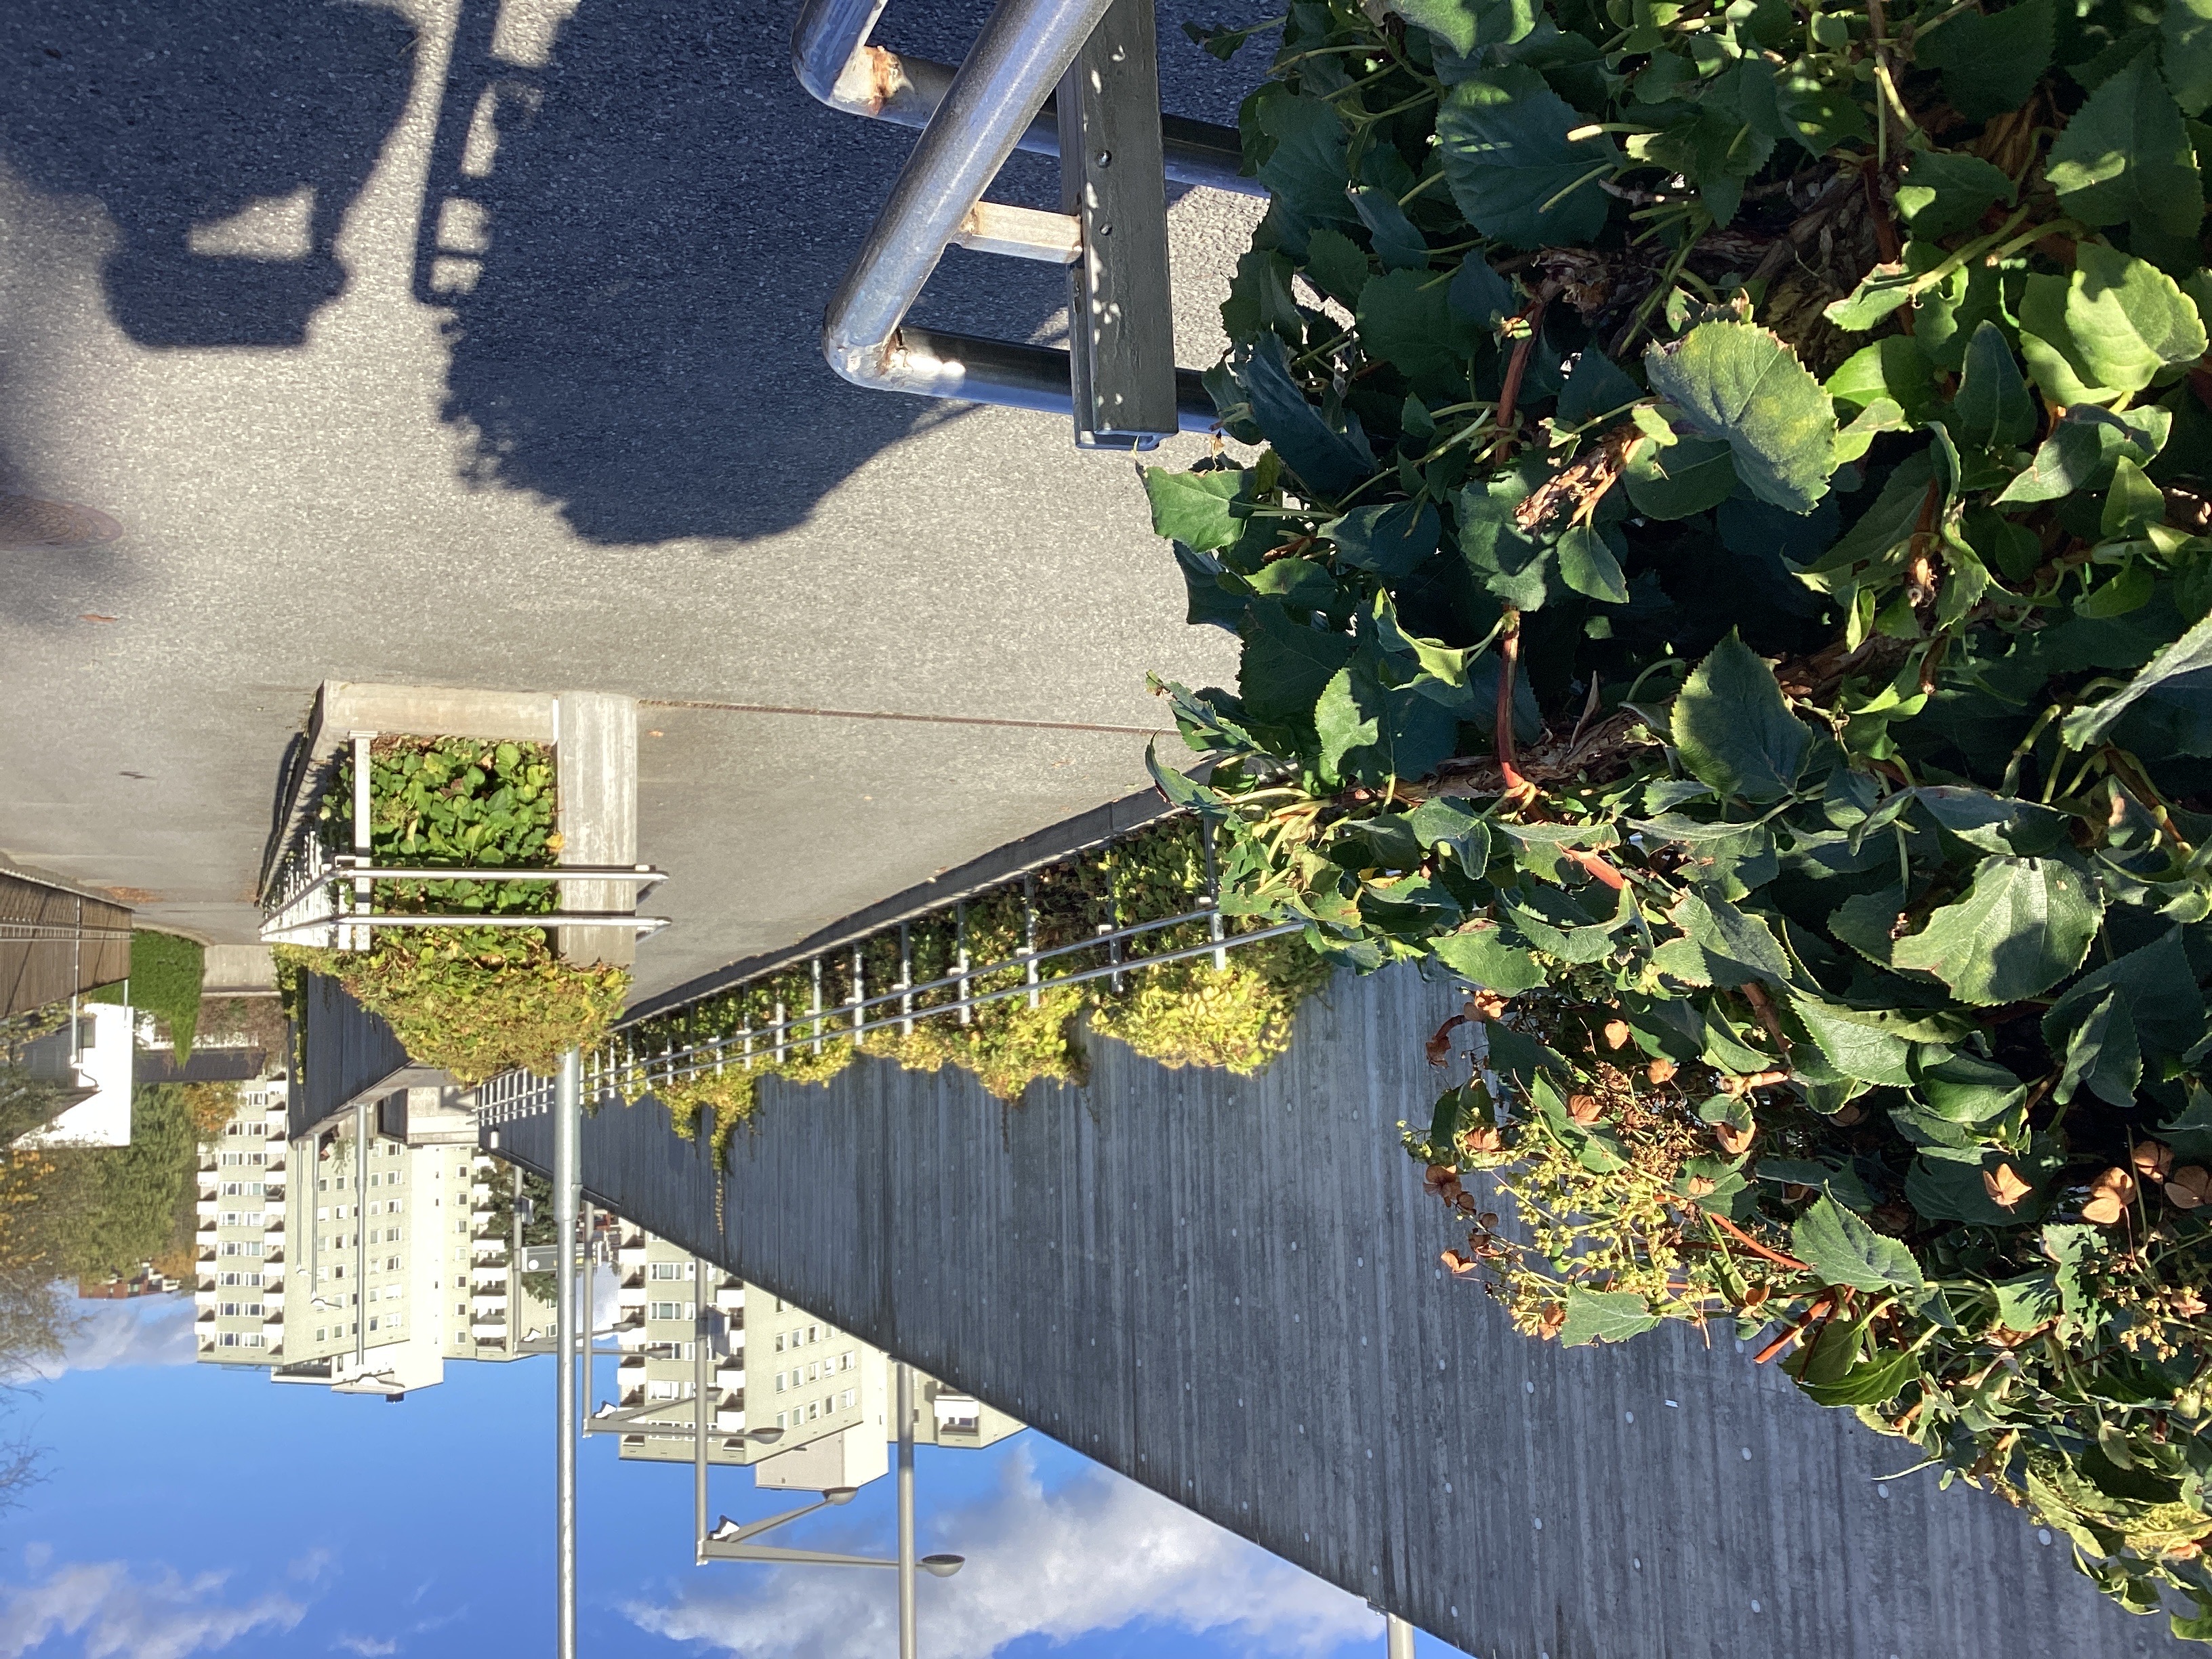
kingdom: Plantae
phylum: Tracheophyta
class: Magnoliopsida
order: Cornales
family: Hydrangeaceae
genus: Hydrangea
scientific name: Hydrangea petiolaris
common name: klatrehortensia
